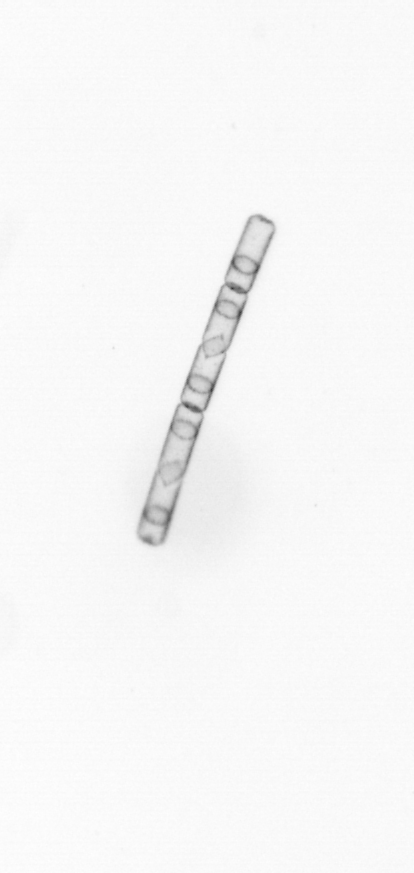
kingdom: Chromista
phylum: Ochrophyta
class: Bacillariophyceae
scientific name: Bacillariophyceae
